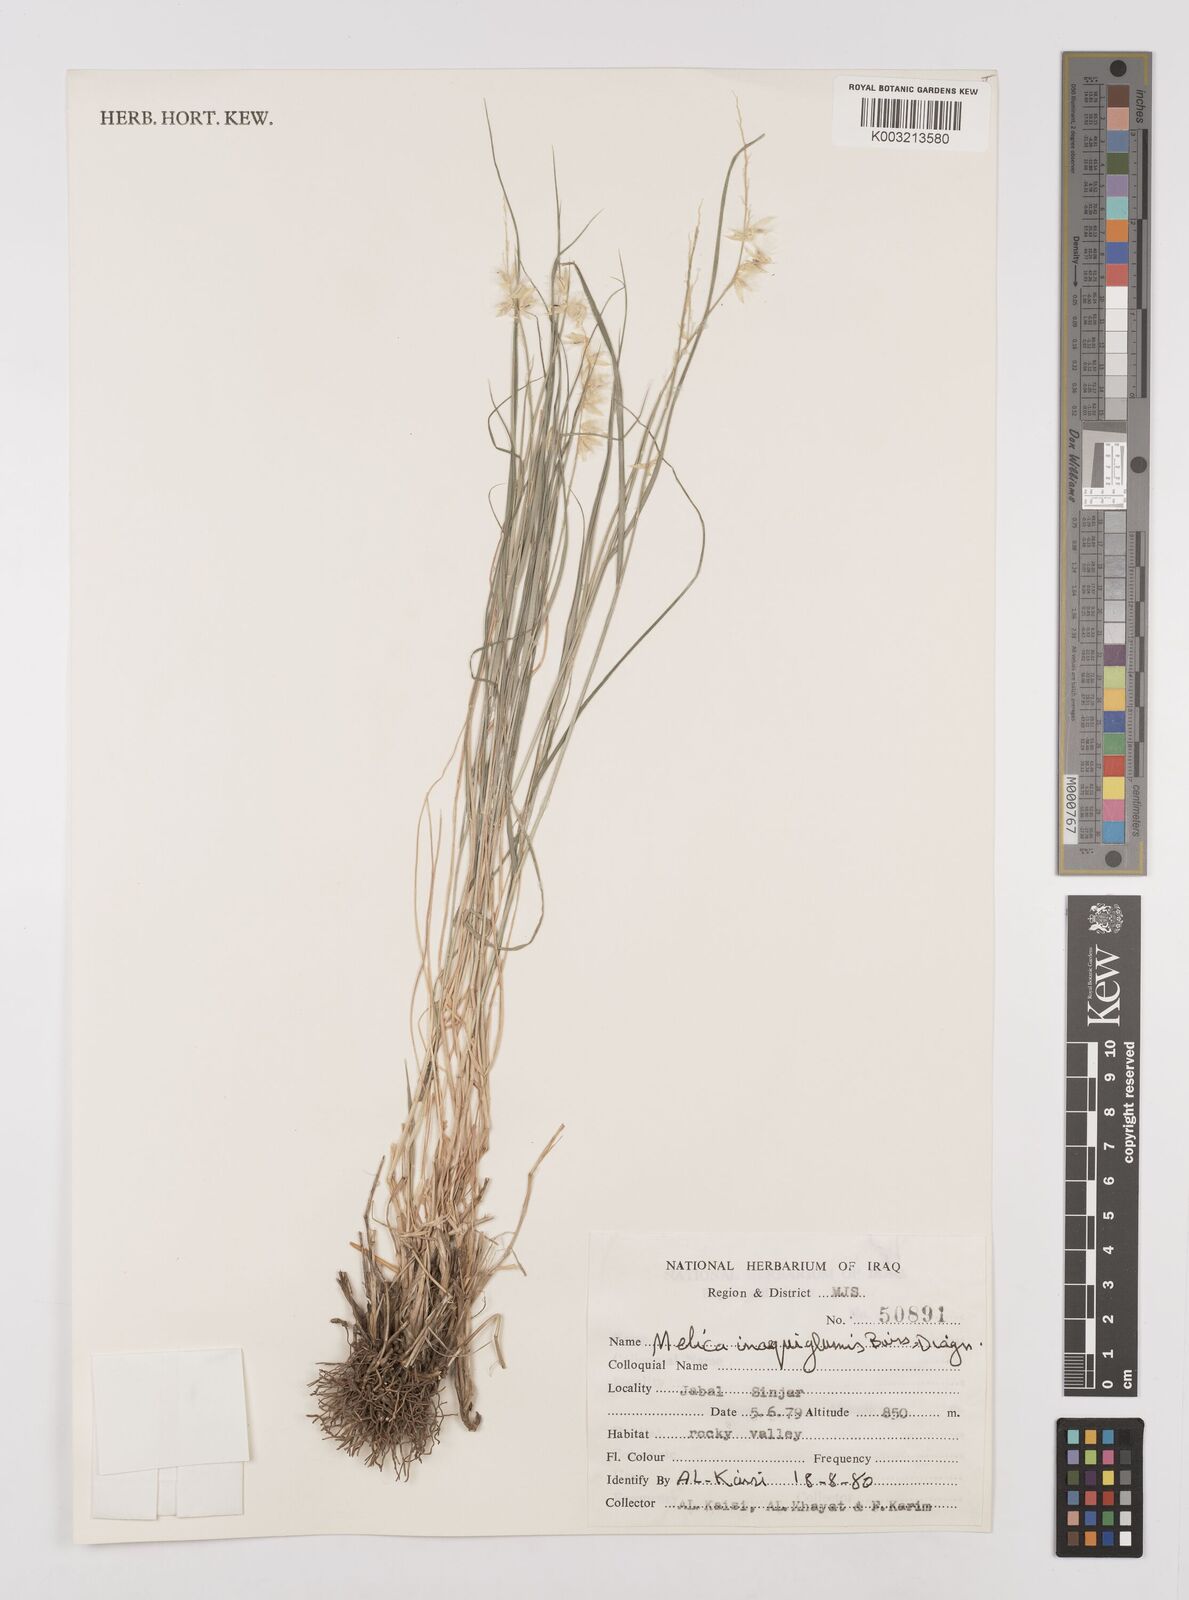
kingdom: Plantae
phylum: Tracheophyta
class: Liliopsida
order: Poales
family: Poaceae
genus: Melica
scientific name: Melica eligulata
